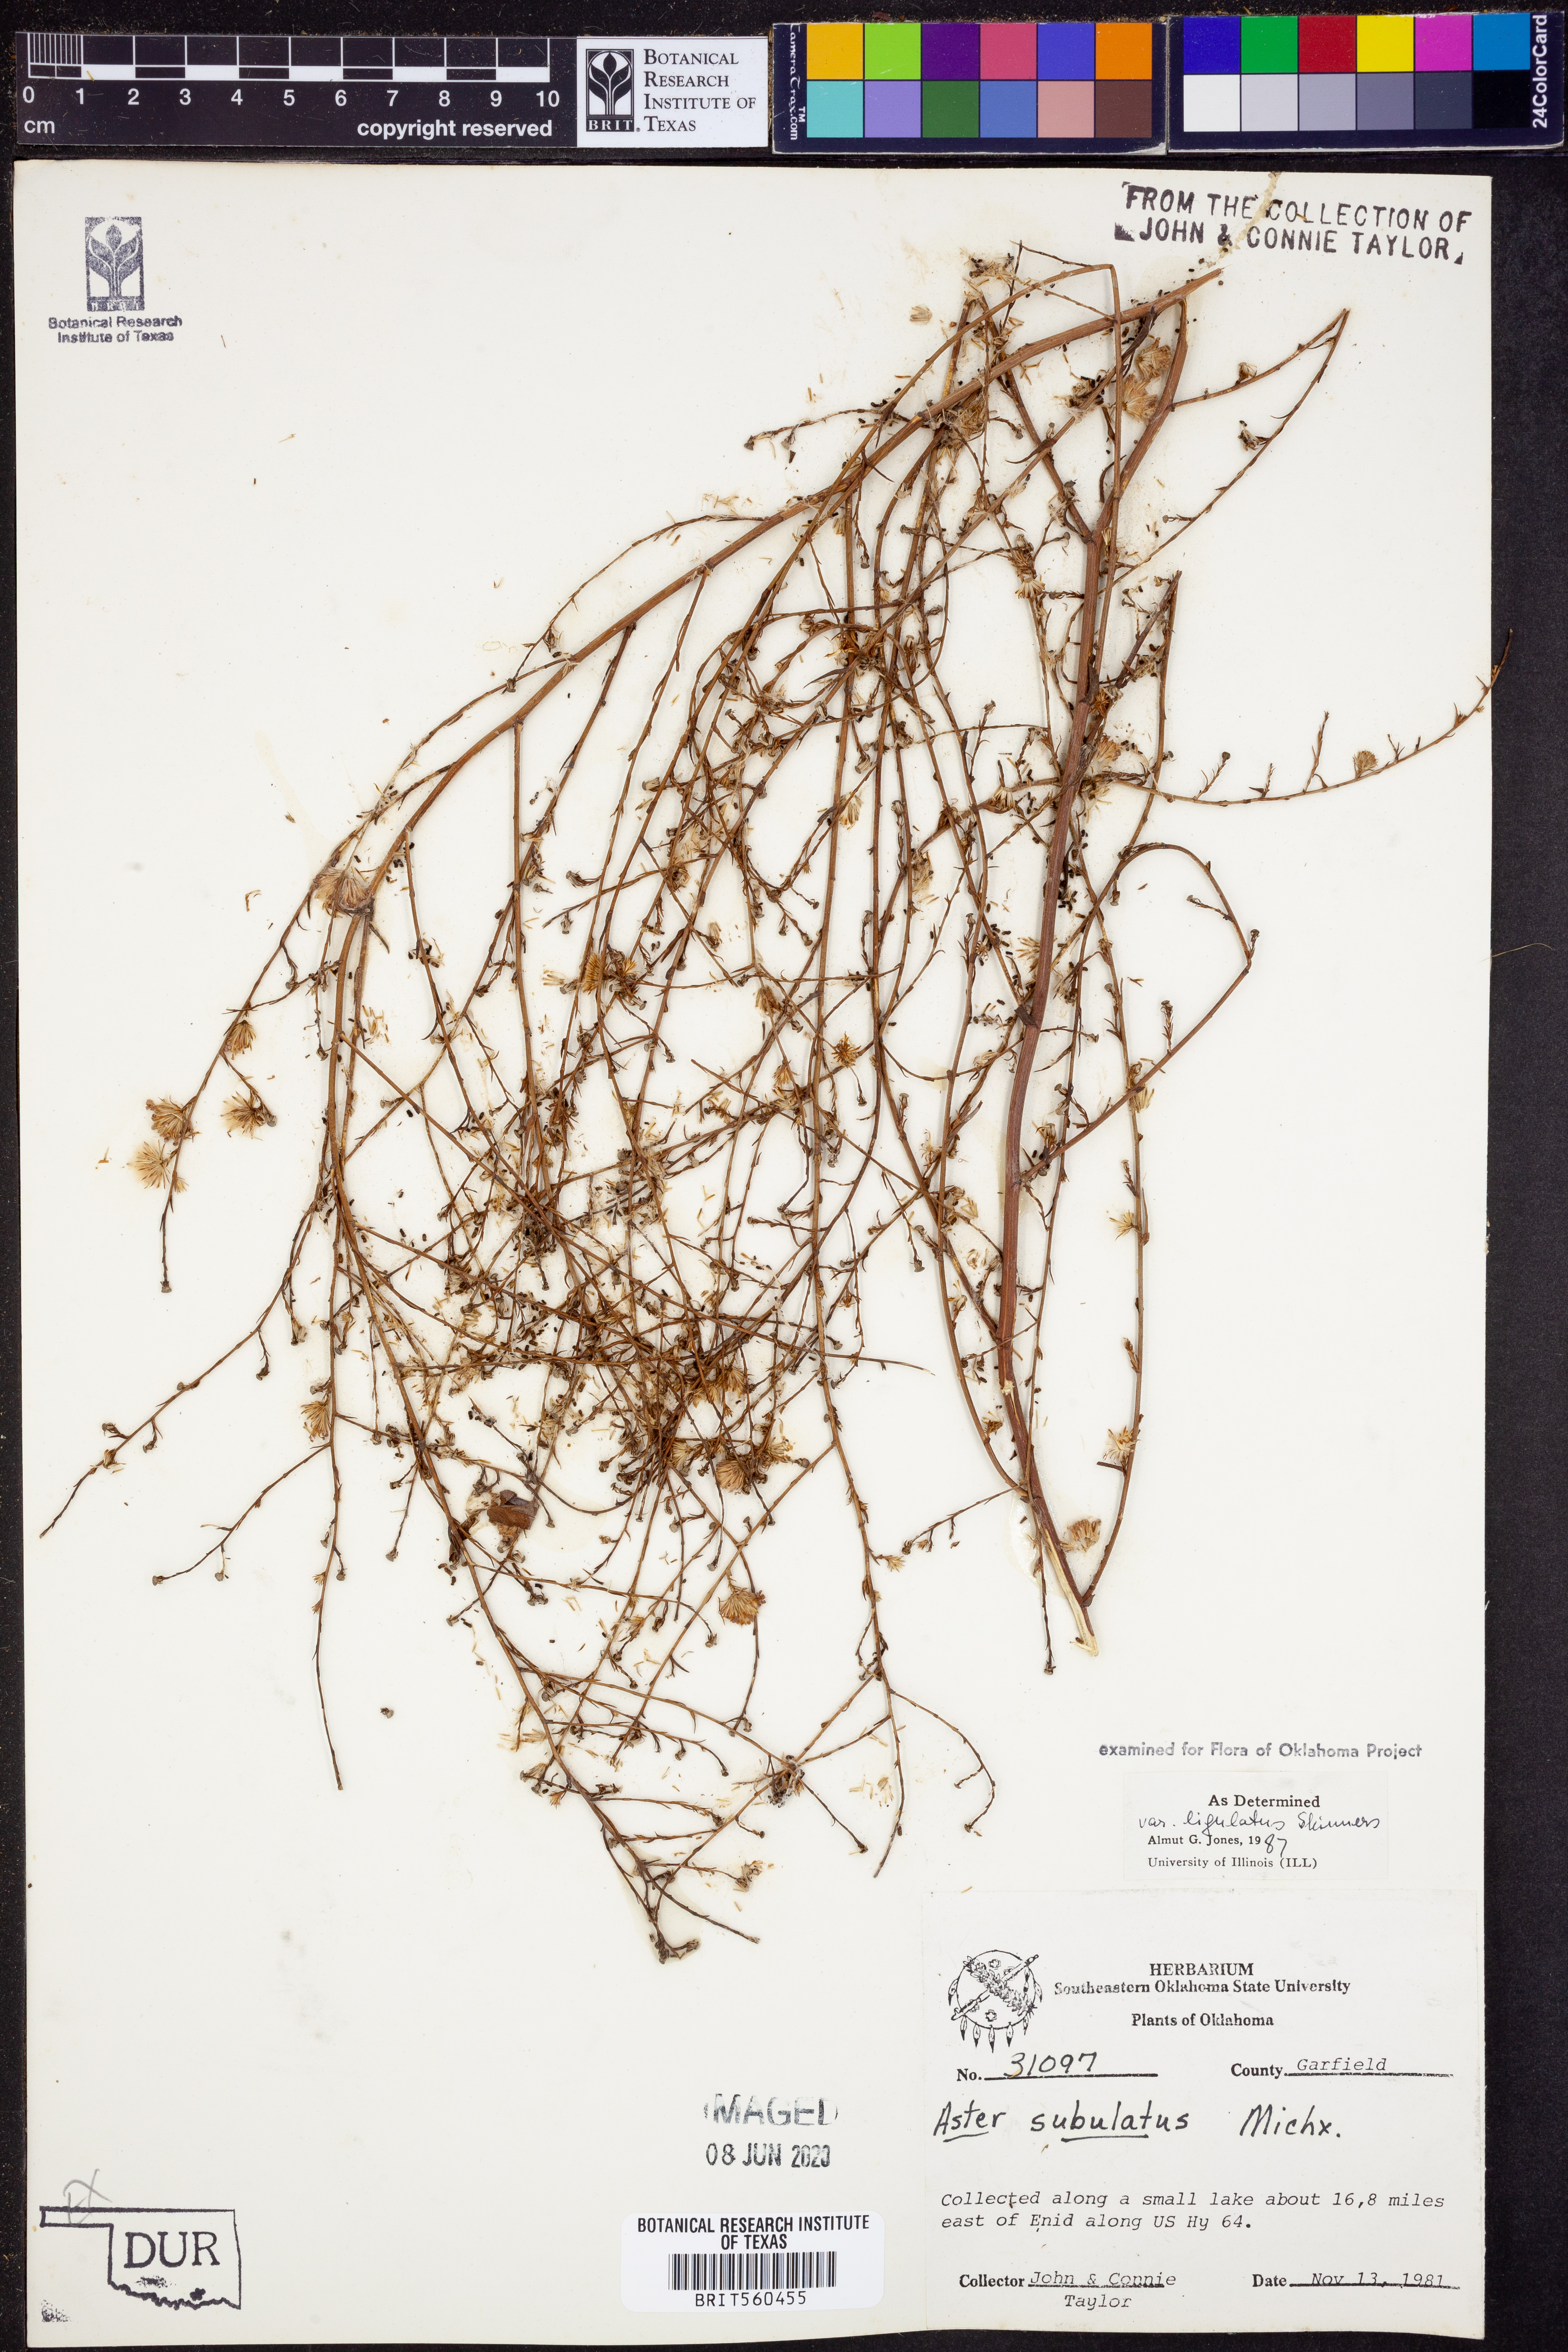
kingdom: Plantae
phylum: Tracheophyta
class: Magnoliopsida
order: Asterales
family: Asteraceae
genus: Symphyotrichum
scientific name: Symphyotrichum divaricatum
